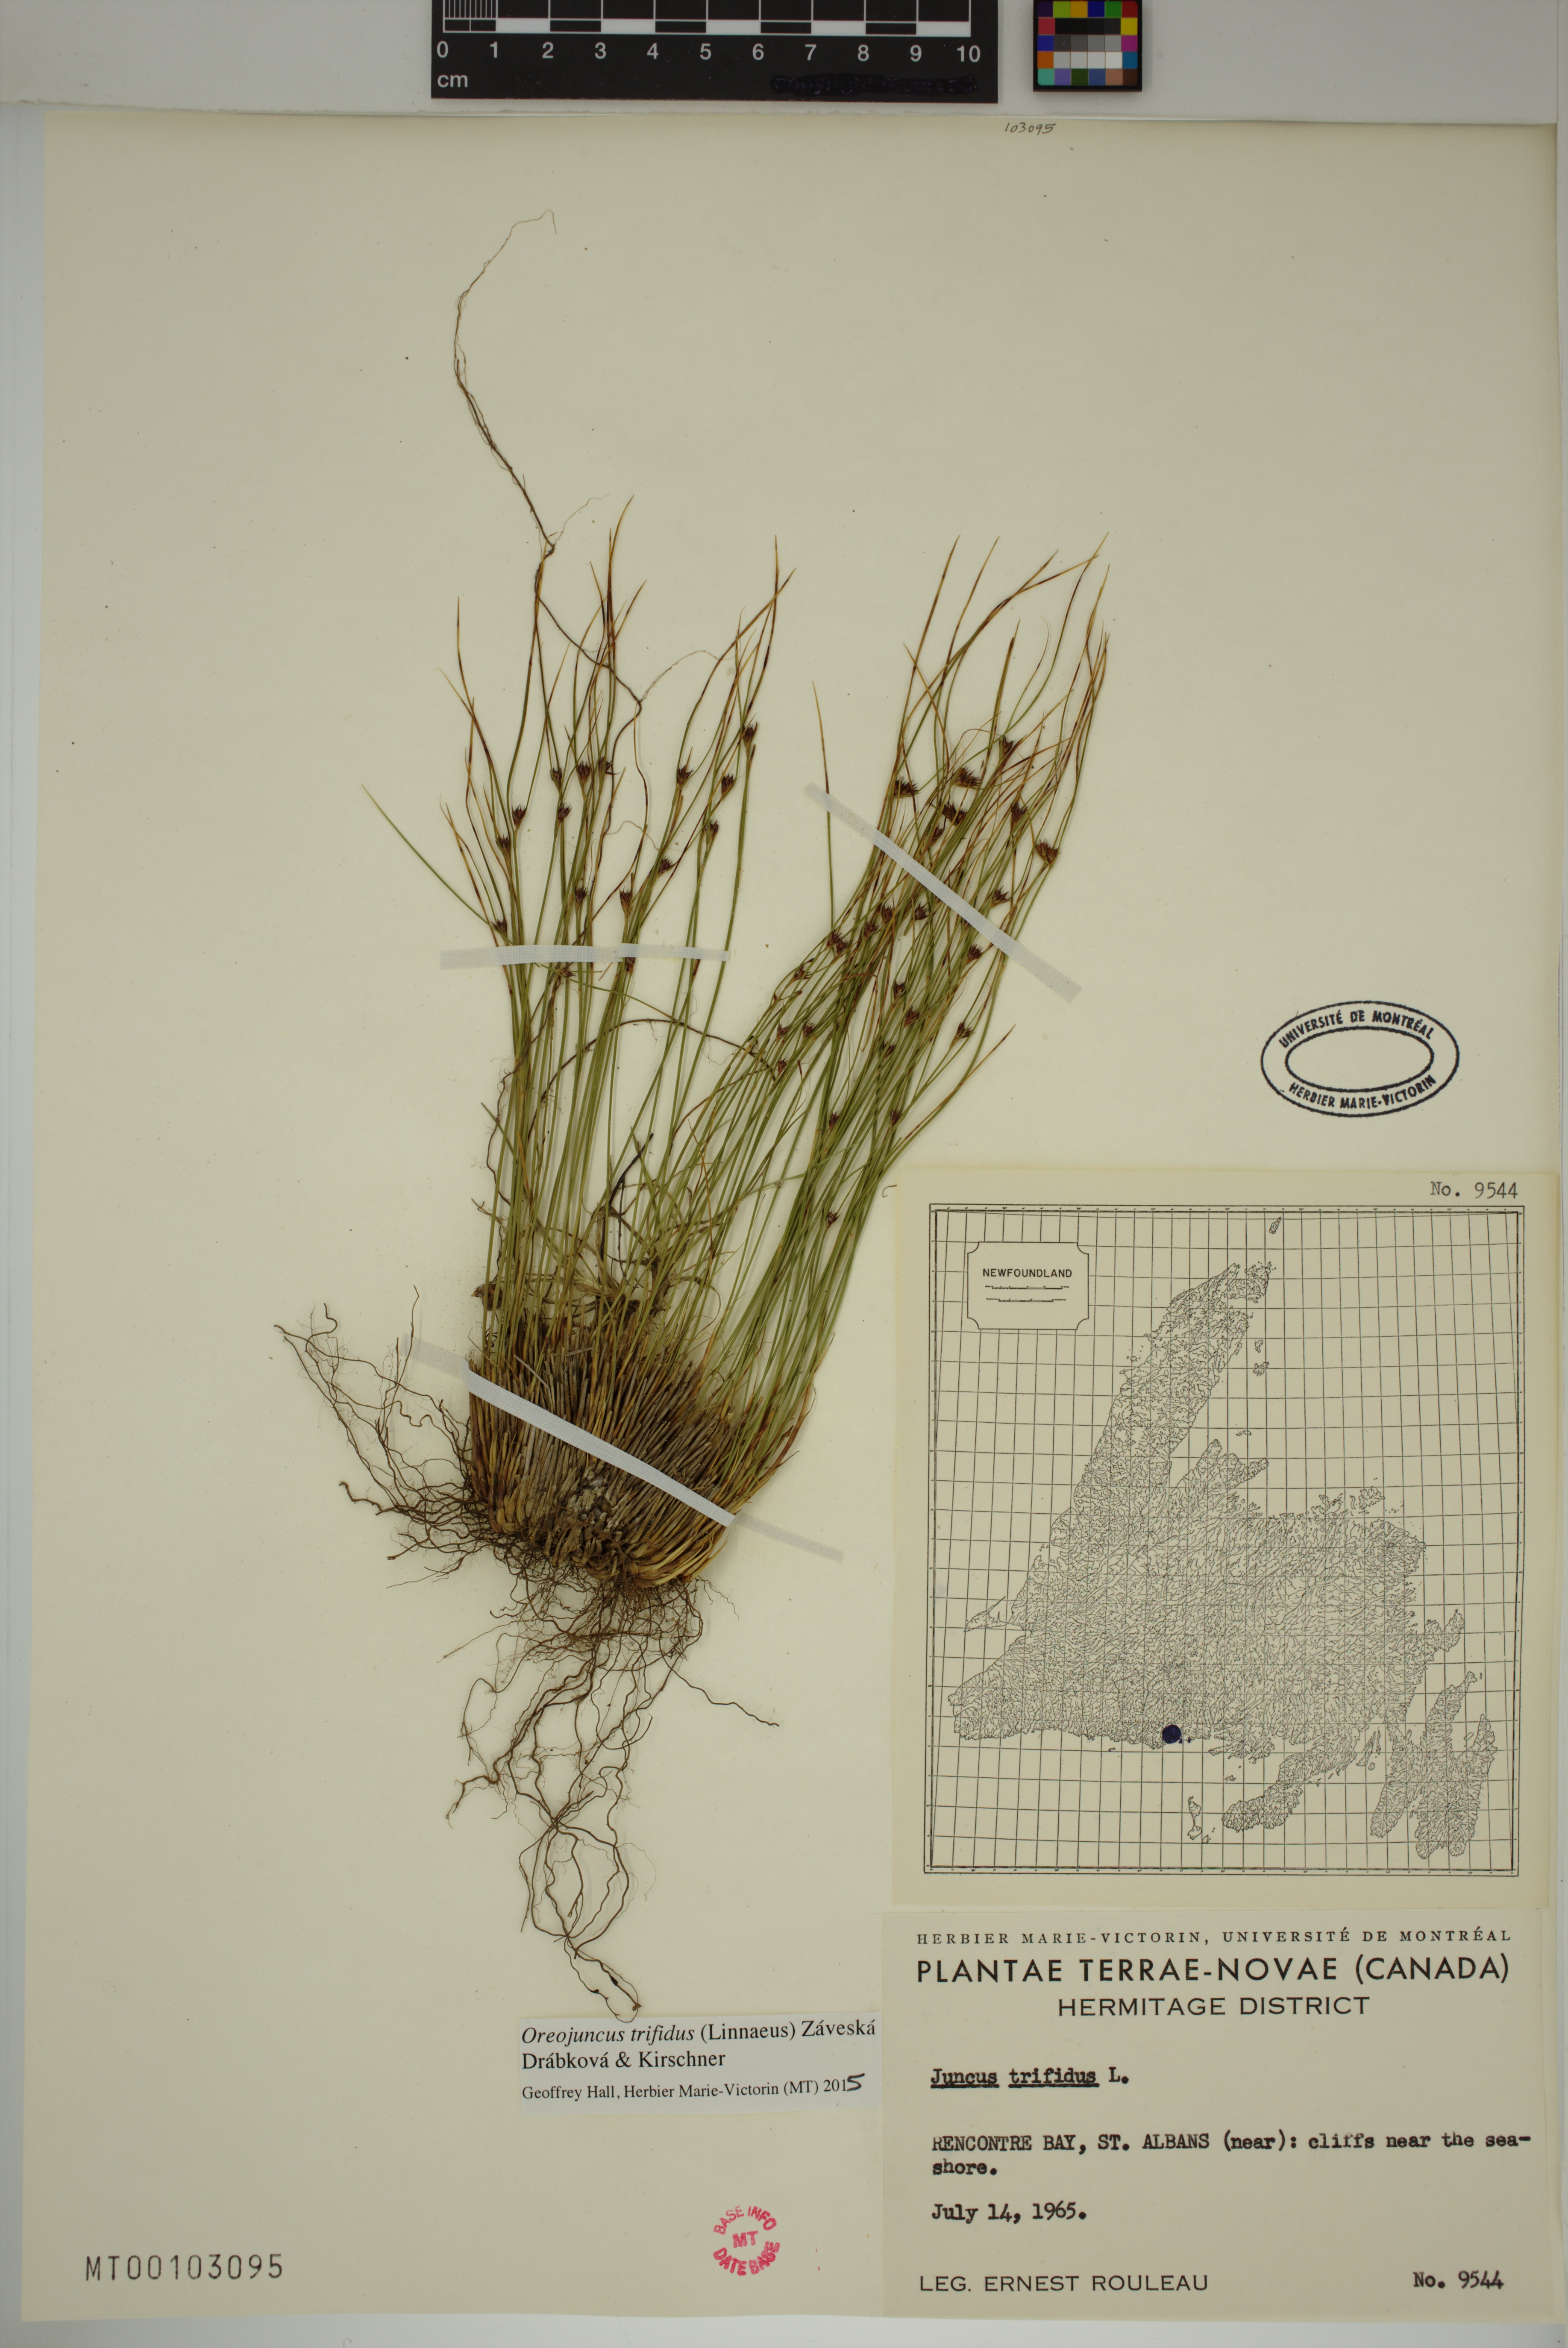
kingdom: Plantae
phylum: Tracheophyta
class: Liliopsida
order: Poales
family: Juncaceae
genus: Oreojuncus
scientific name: Oreojuncus trifidus
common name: Highland rush
